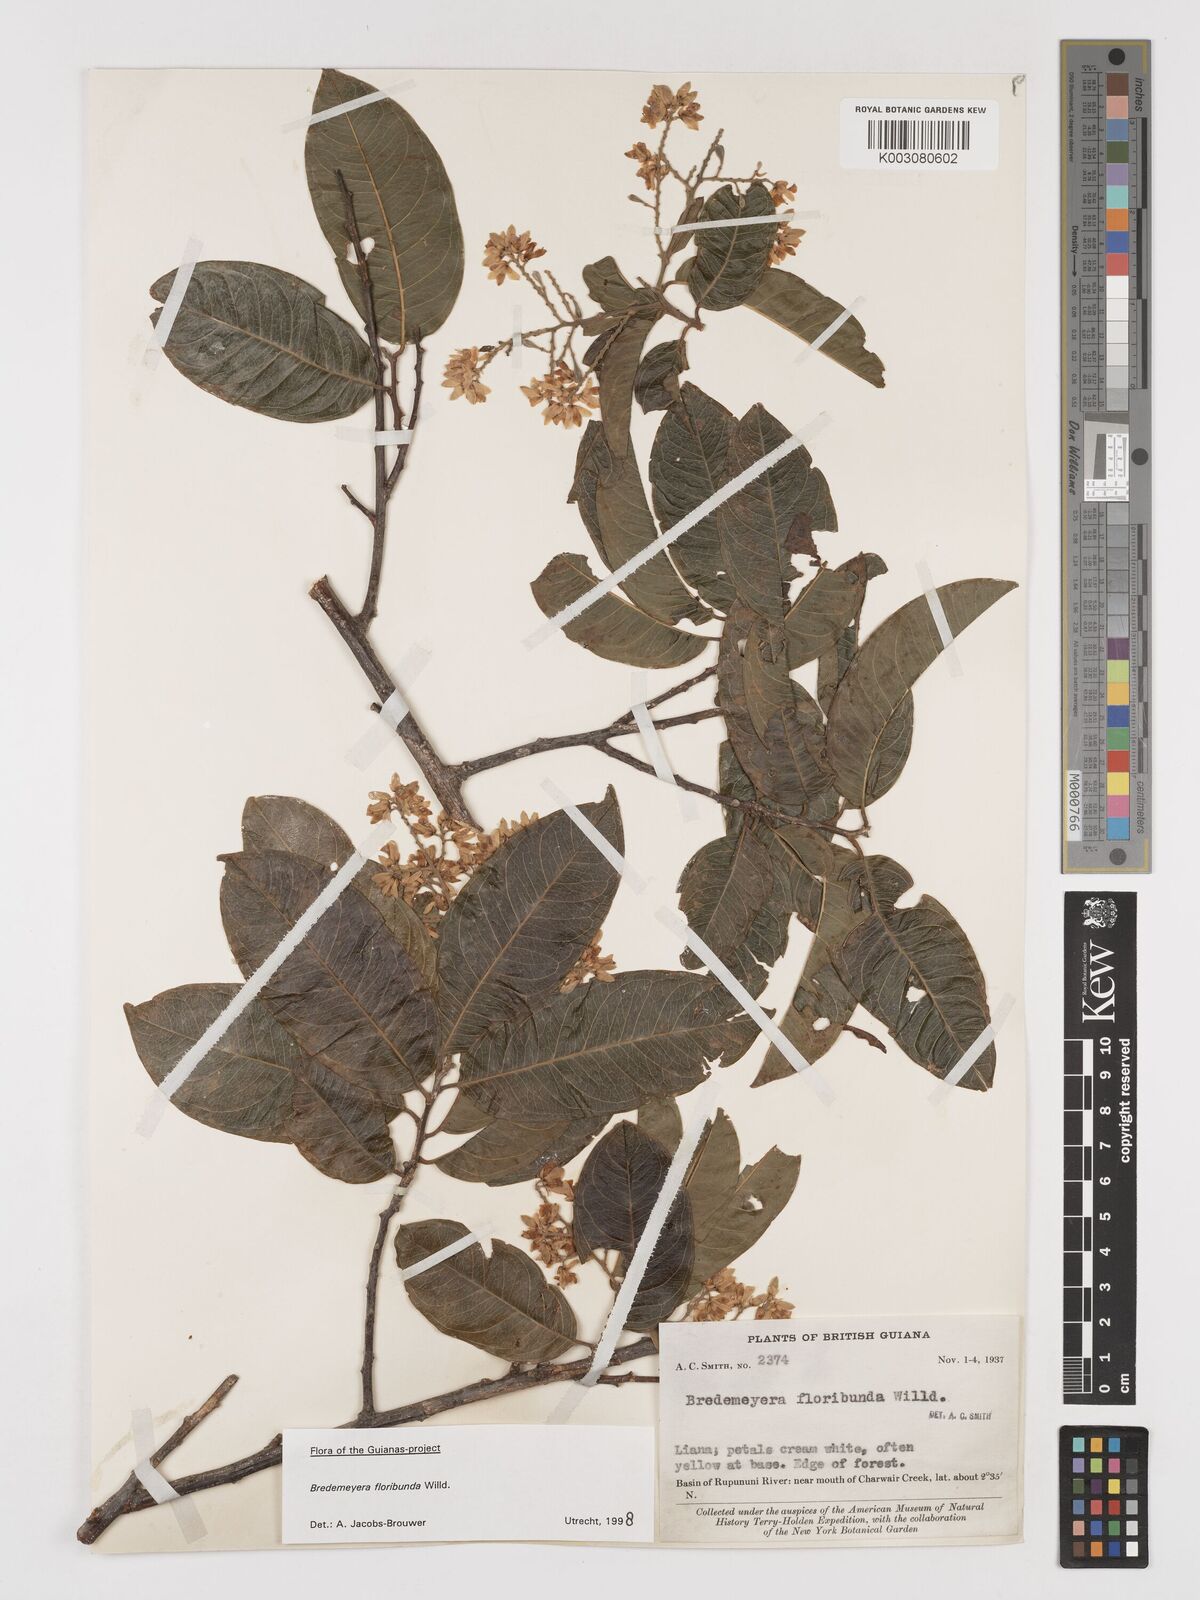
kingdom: Plantae
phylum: Tracheophyta
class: Magnoliopsida
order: Fabales
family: Polygalaceae
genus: Bredemeyera
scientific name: Bredemeyera floribunda
